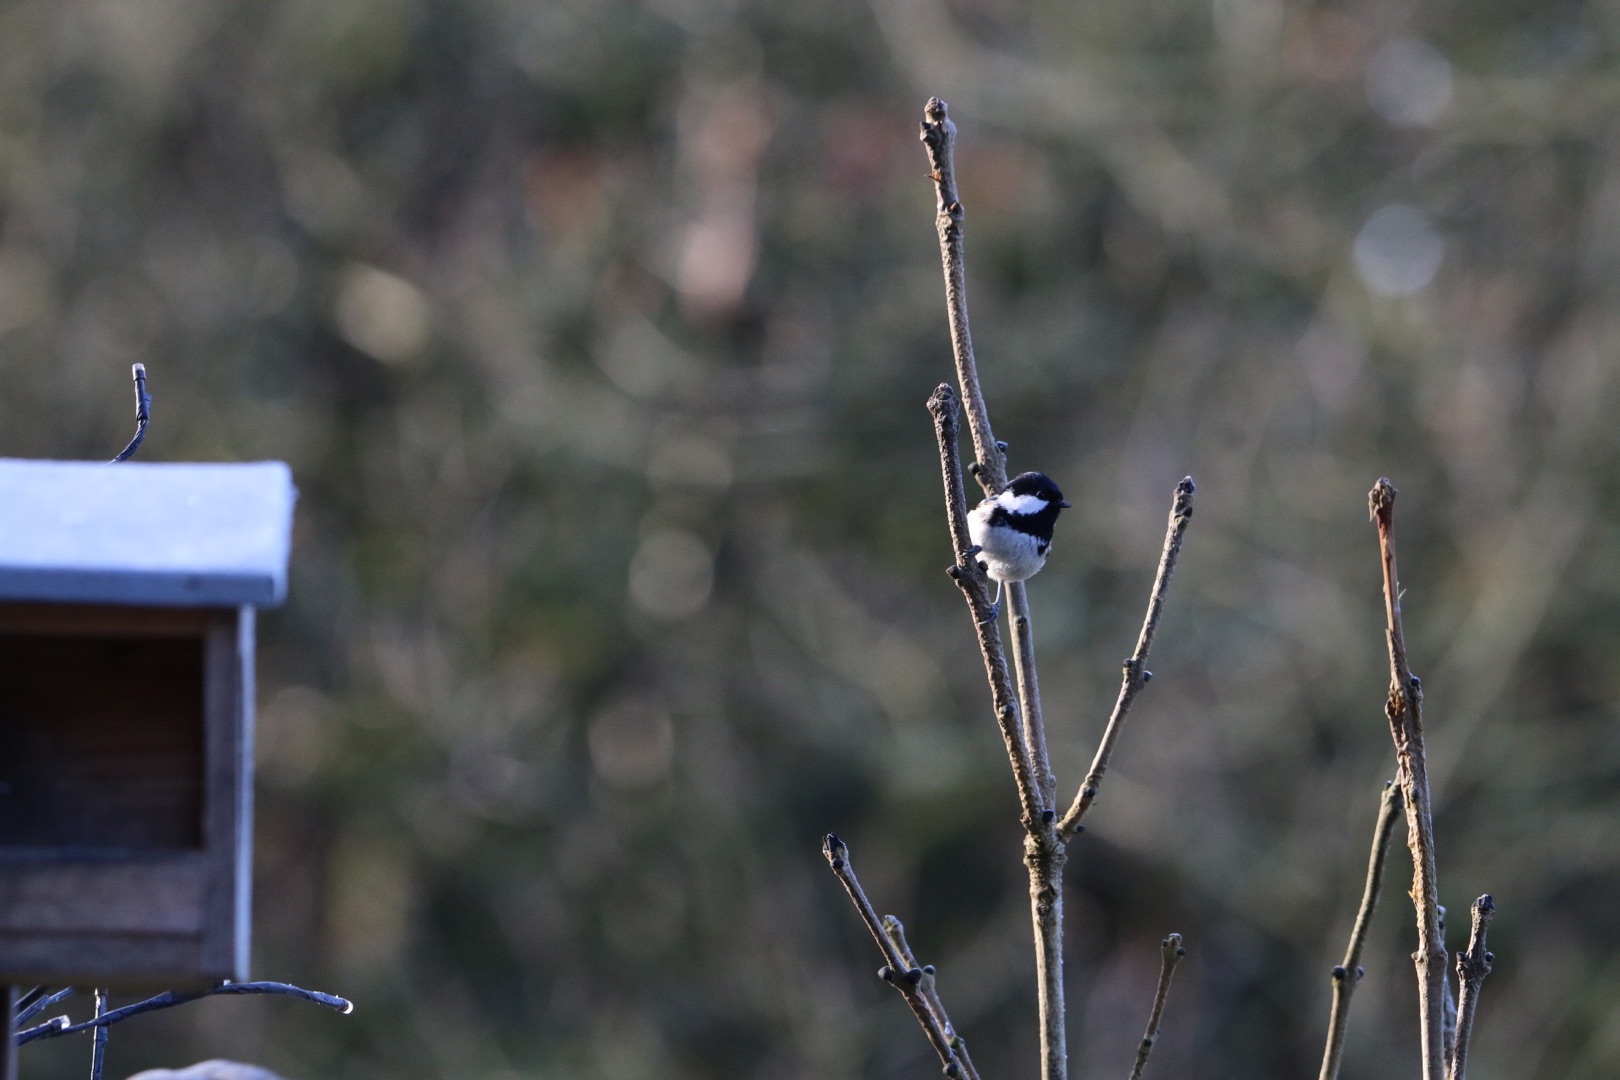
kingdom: Animalia
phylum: Chordata
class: Aves
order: Passeriformes
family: Paridae
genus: Periparus
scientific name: Periparus ater
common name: Sortmejse
